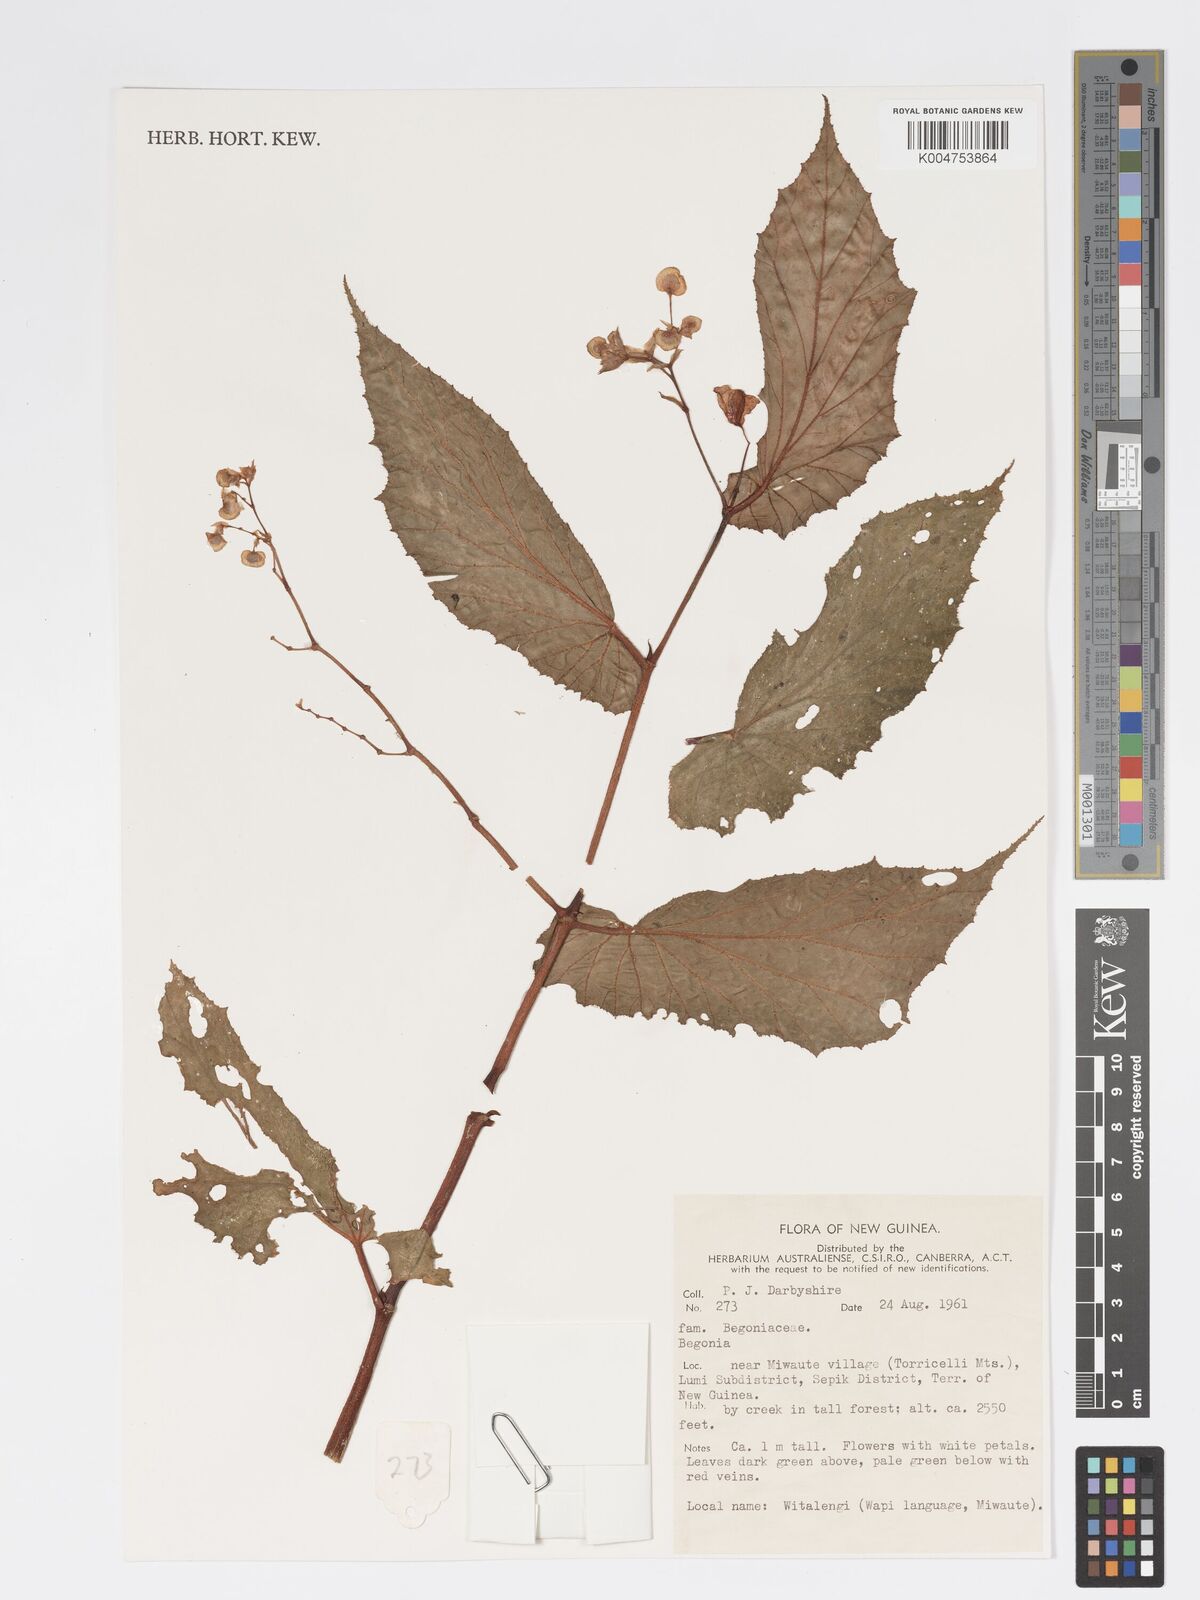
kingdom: Plantae
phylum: Tracheophyta
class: Magnoliopsida
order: Cucurbitales
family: Begoniaceae
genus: Begonia
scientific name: Begonia
